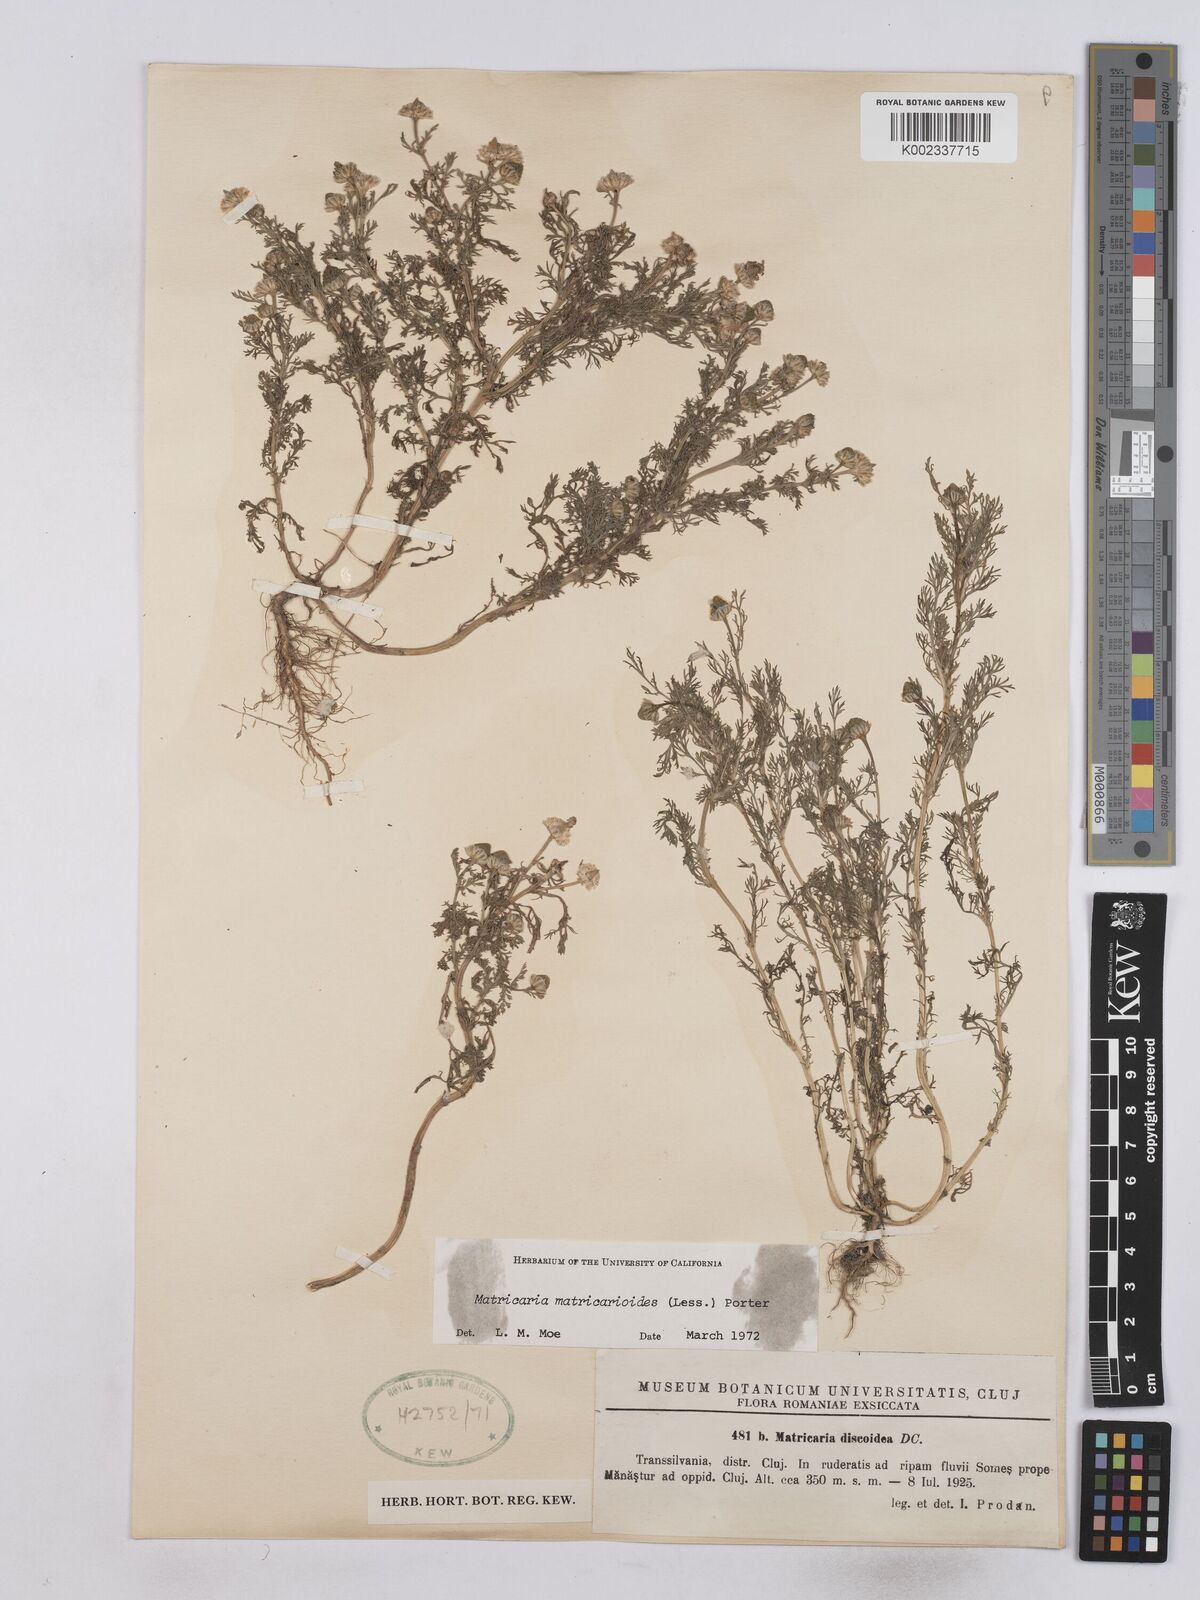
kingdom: Plantae
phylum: Tracheophyta
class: Magnoliopsida
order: Asterales
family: Asteraceae
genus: Matricaria
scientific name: Matricaria discoidea
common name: Disc mayweed
